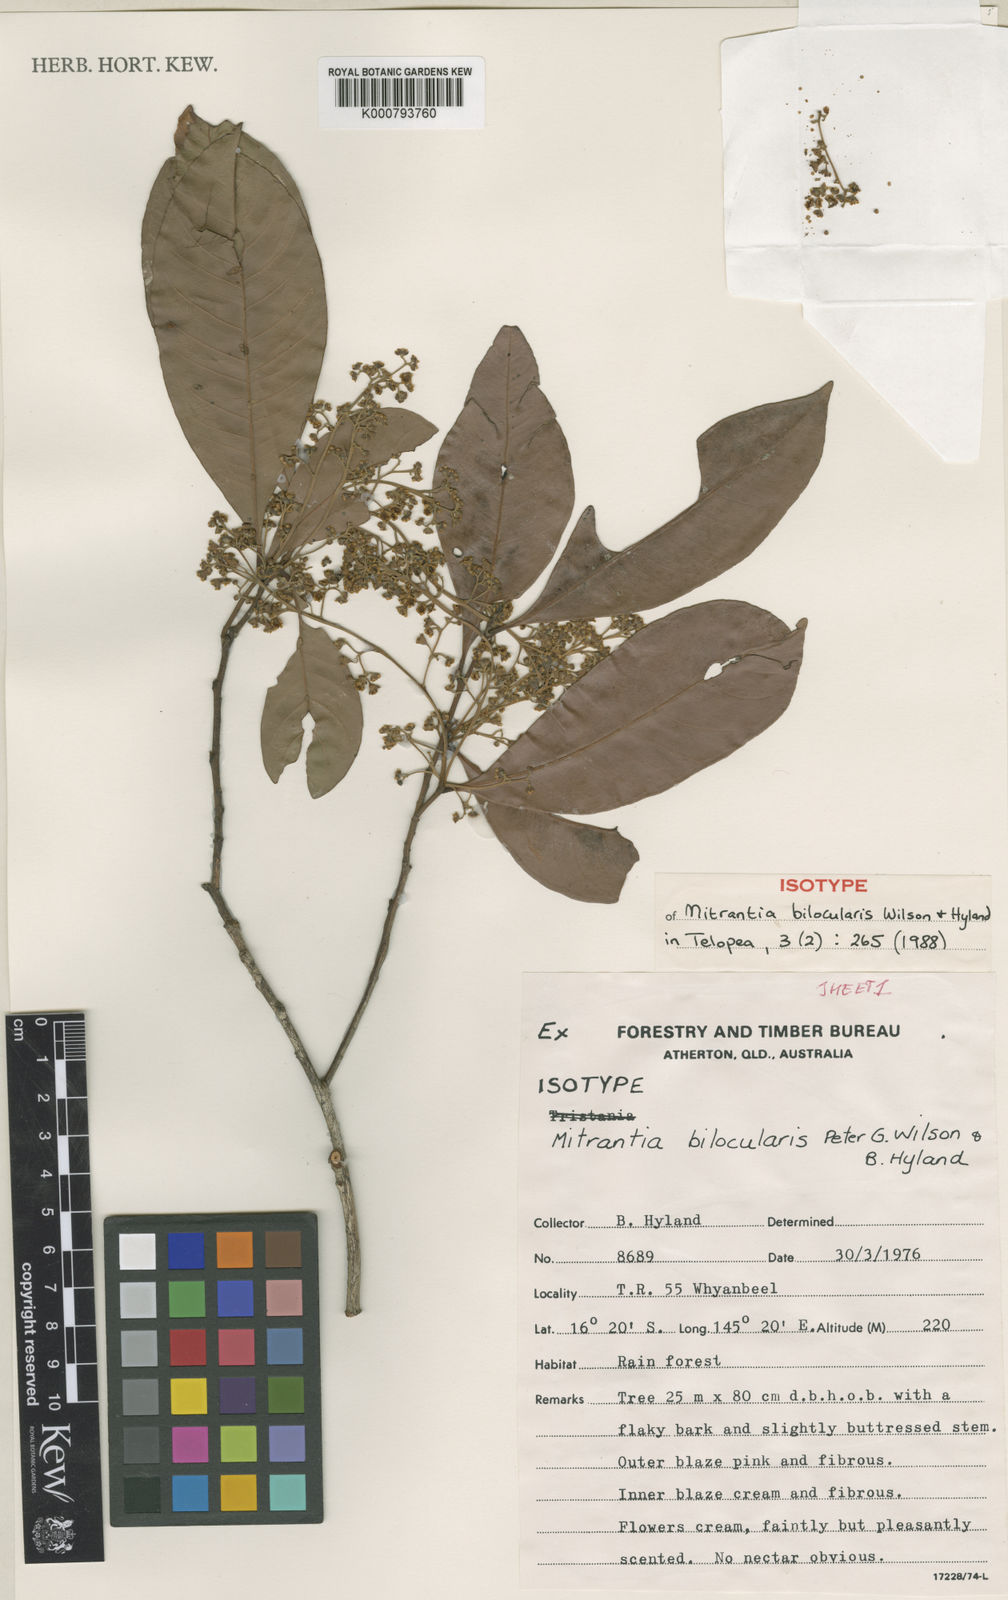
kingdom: Plantae
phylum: Tracheophyta
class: Magnoliopsida
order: Myrtales
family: Myrtaceae
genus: Mitrantia
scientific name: Mitrantia bilocularis
